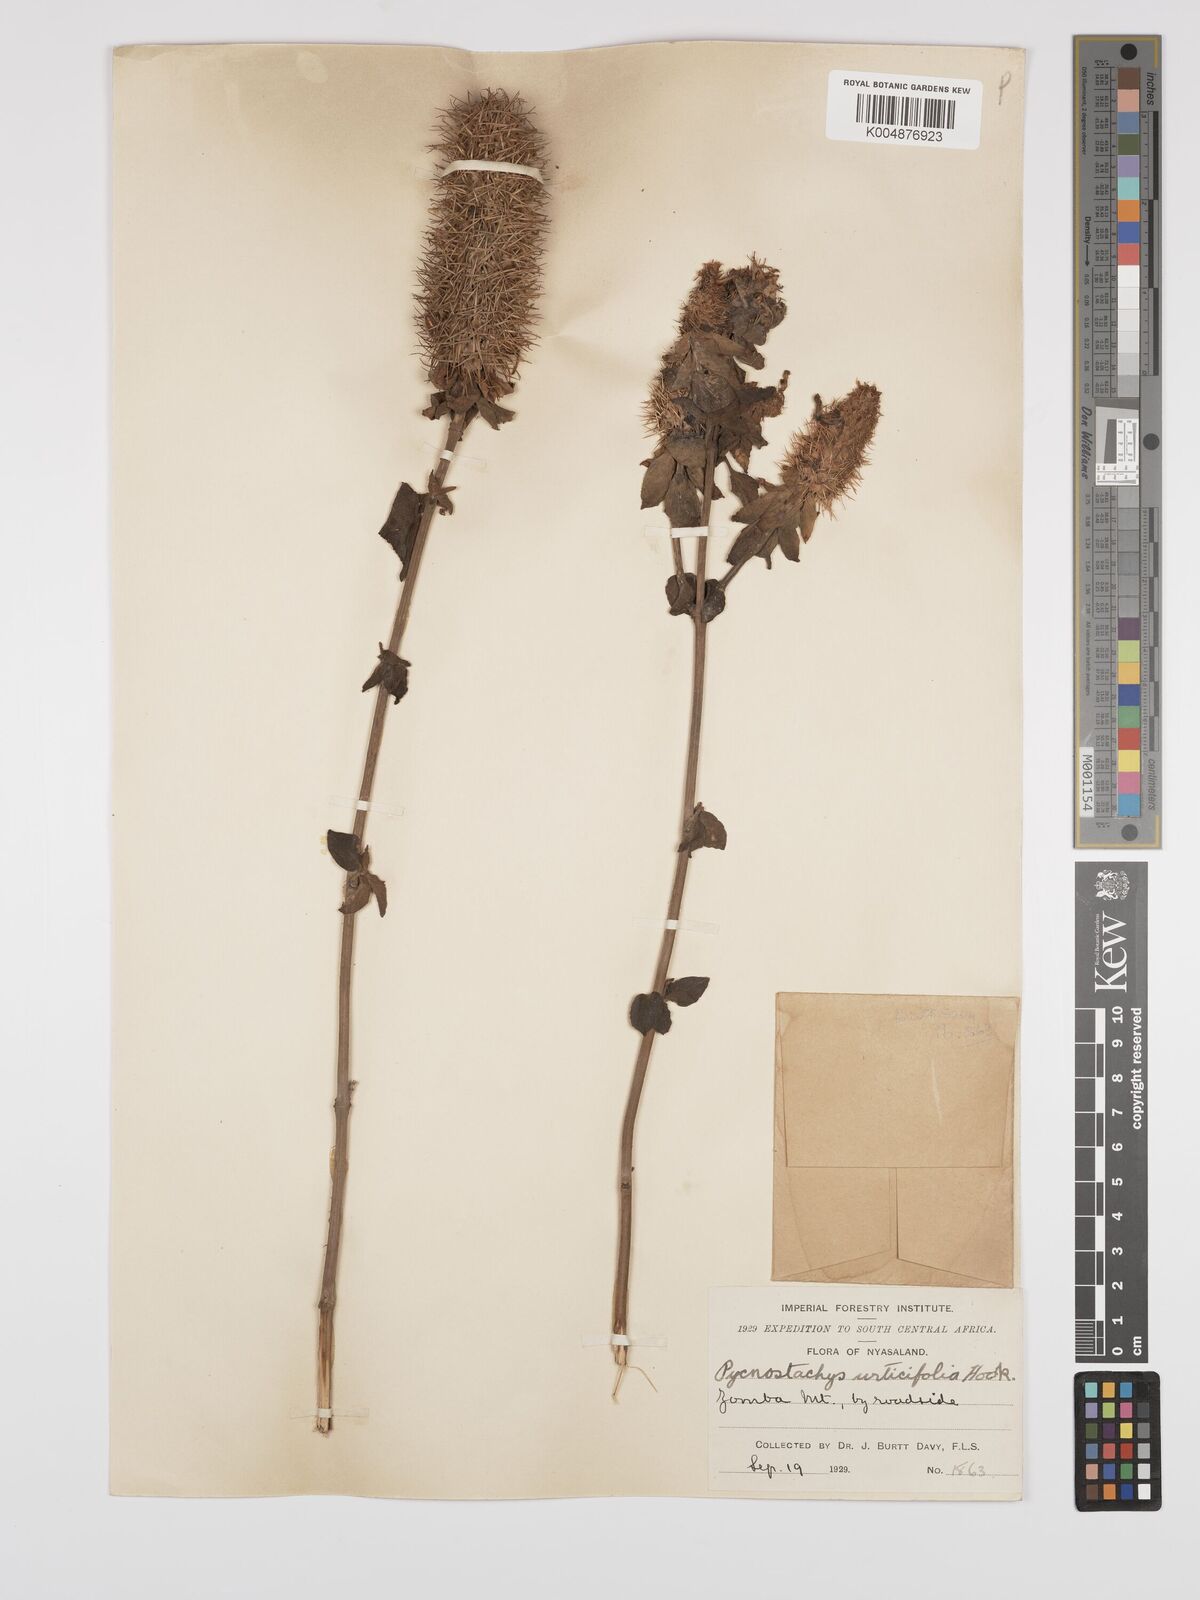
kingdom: Plantae
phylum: Tracheophyta
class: Magnoliopsida
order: Lamiales
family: Lamiaceae
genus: Coleus
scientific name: Coleus livingstonei
